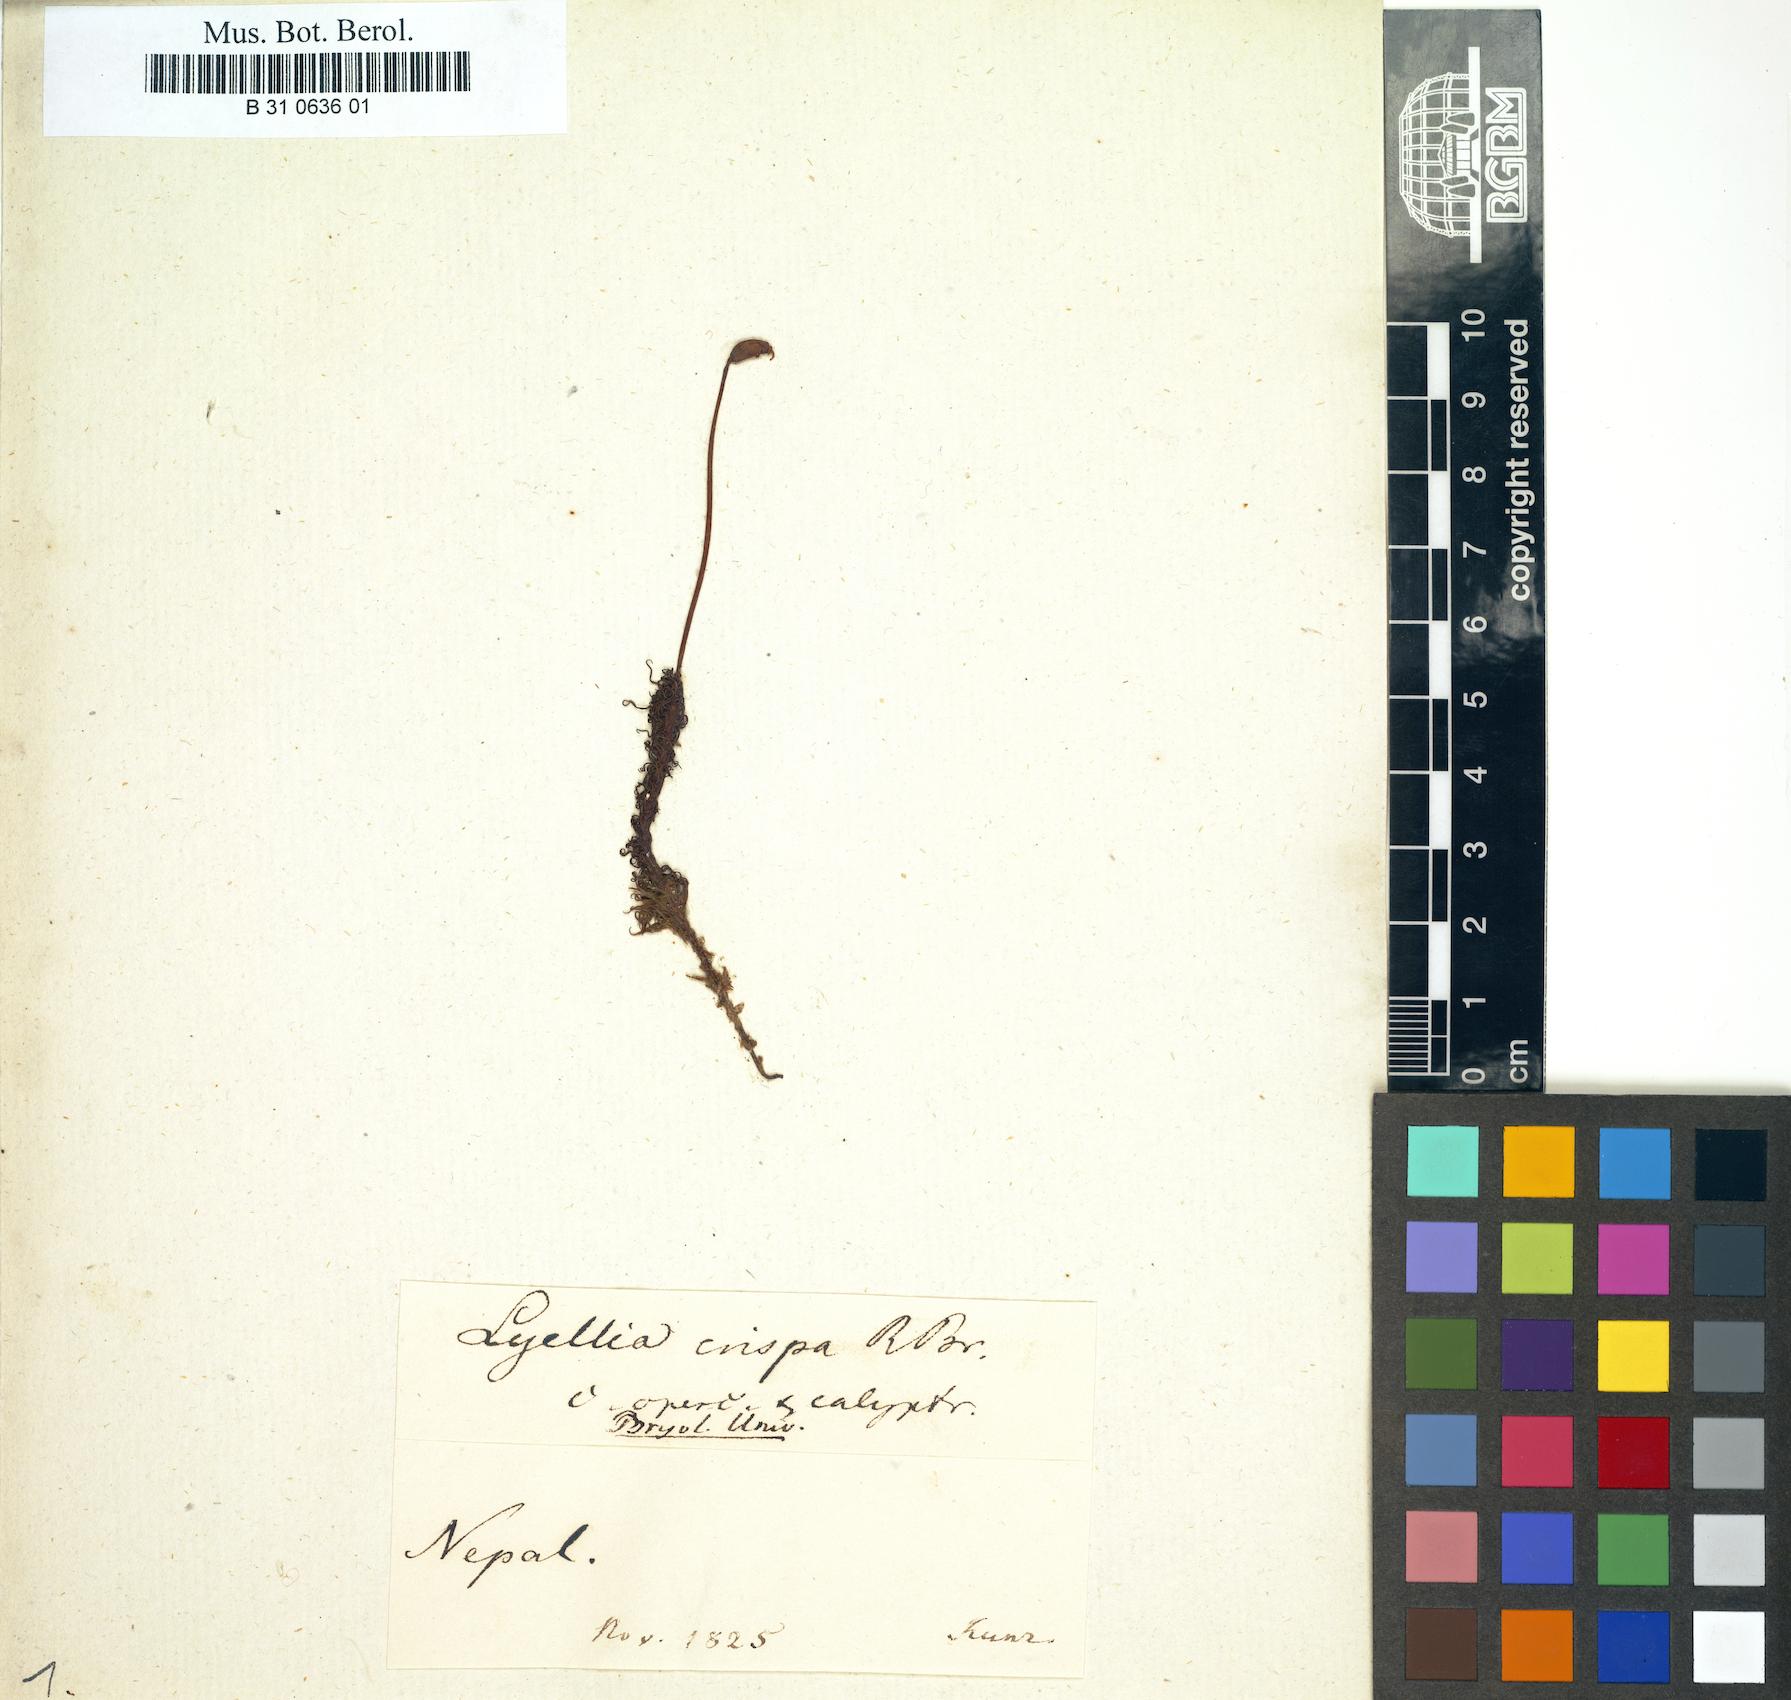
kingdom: Plantae
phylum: Bryophyta
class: Polytrichopsida
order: Polytrichales
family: Polytrichaceae
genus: Lyellia
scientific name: Lyellia crispa
